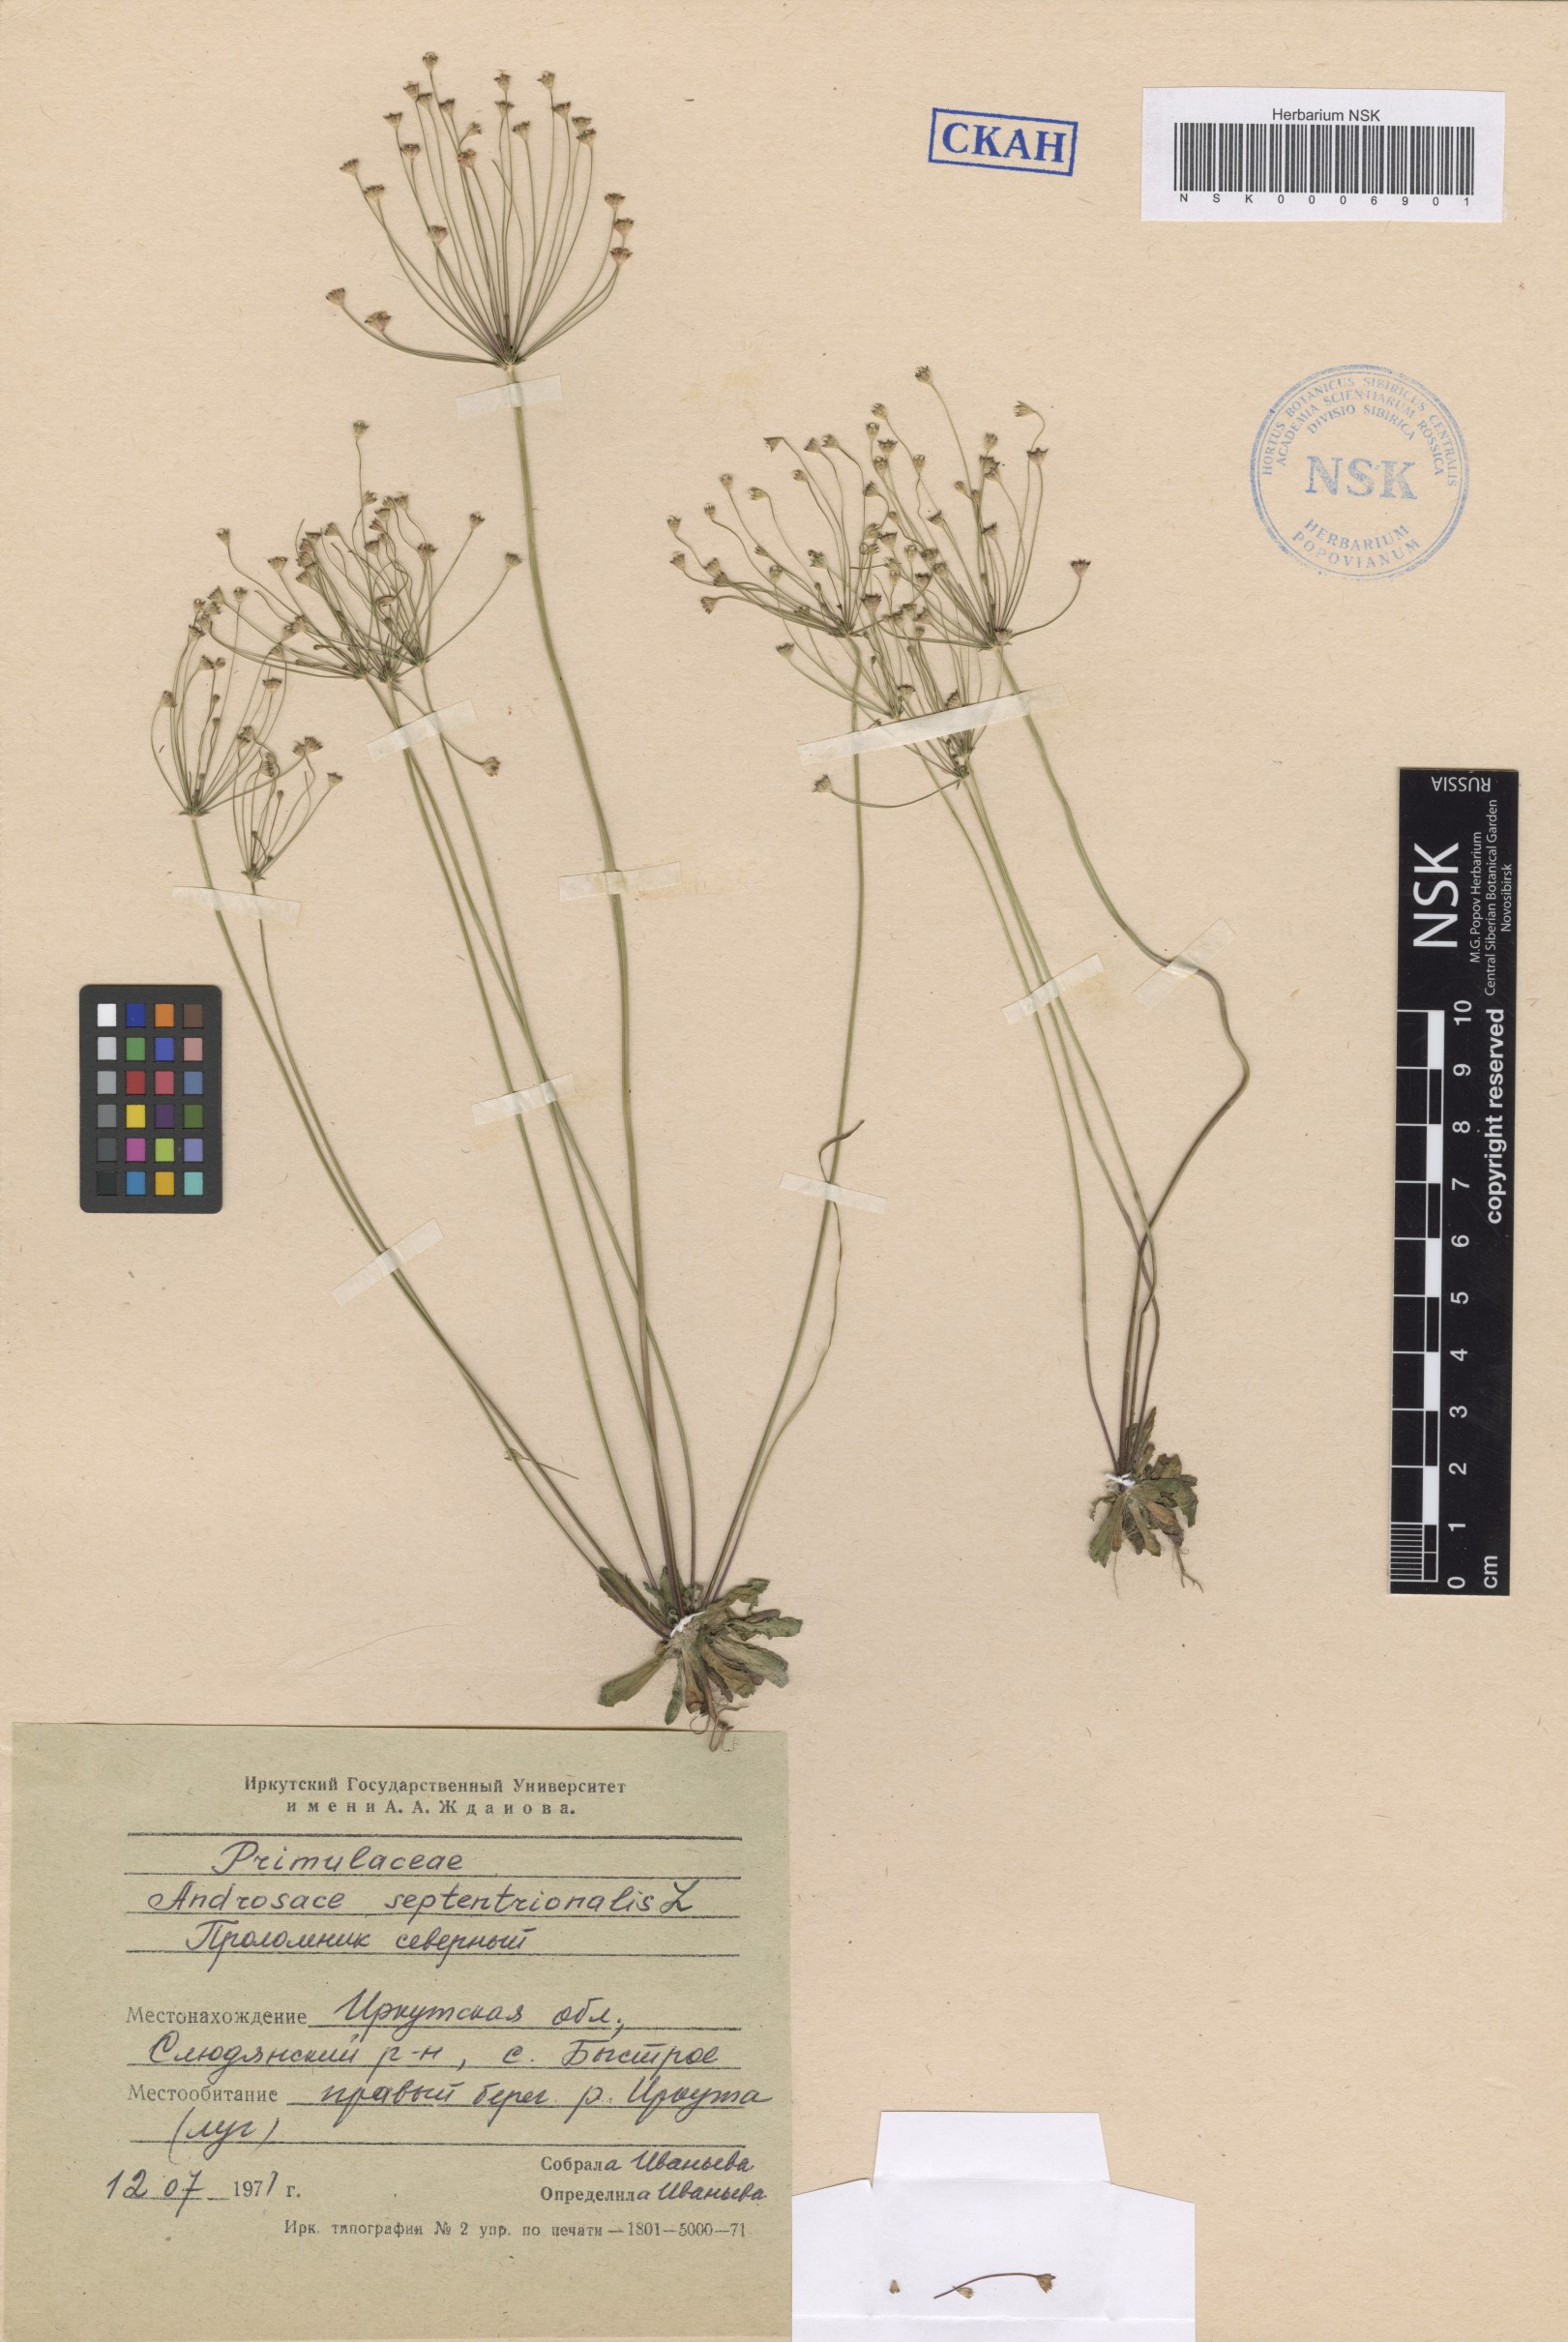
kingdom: Plantae
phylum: Tracheophyta
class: Magnoliopsida
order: Ericales
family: Primulaceae
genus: Androsace
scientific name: Androsace septentrionalis
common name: Hairy northern fairy-candelabra
